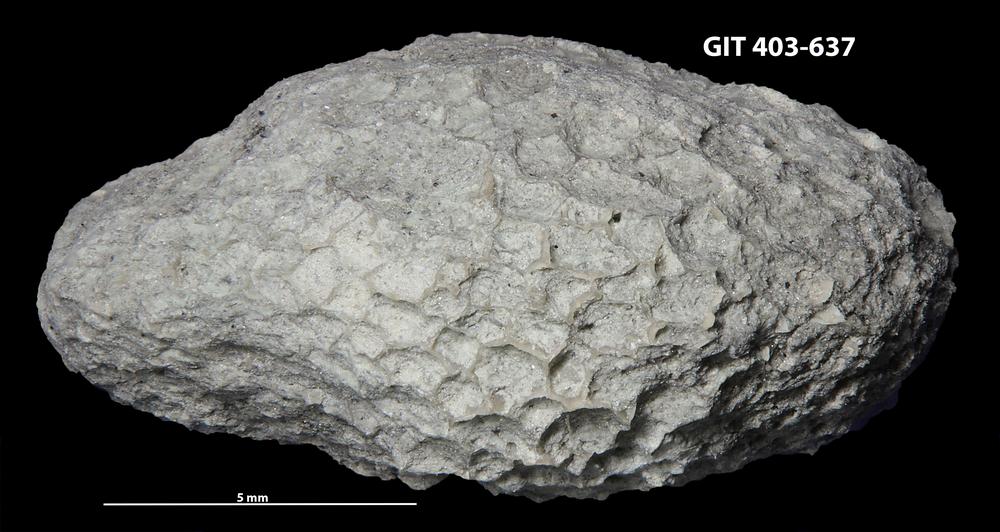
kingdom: Animalia
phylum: Cnidaria
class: Anthozoa
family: Favositidae
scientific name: Favositidae
